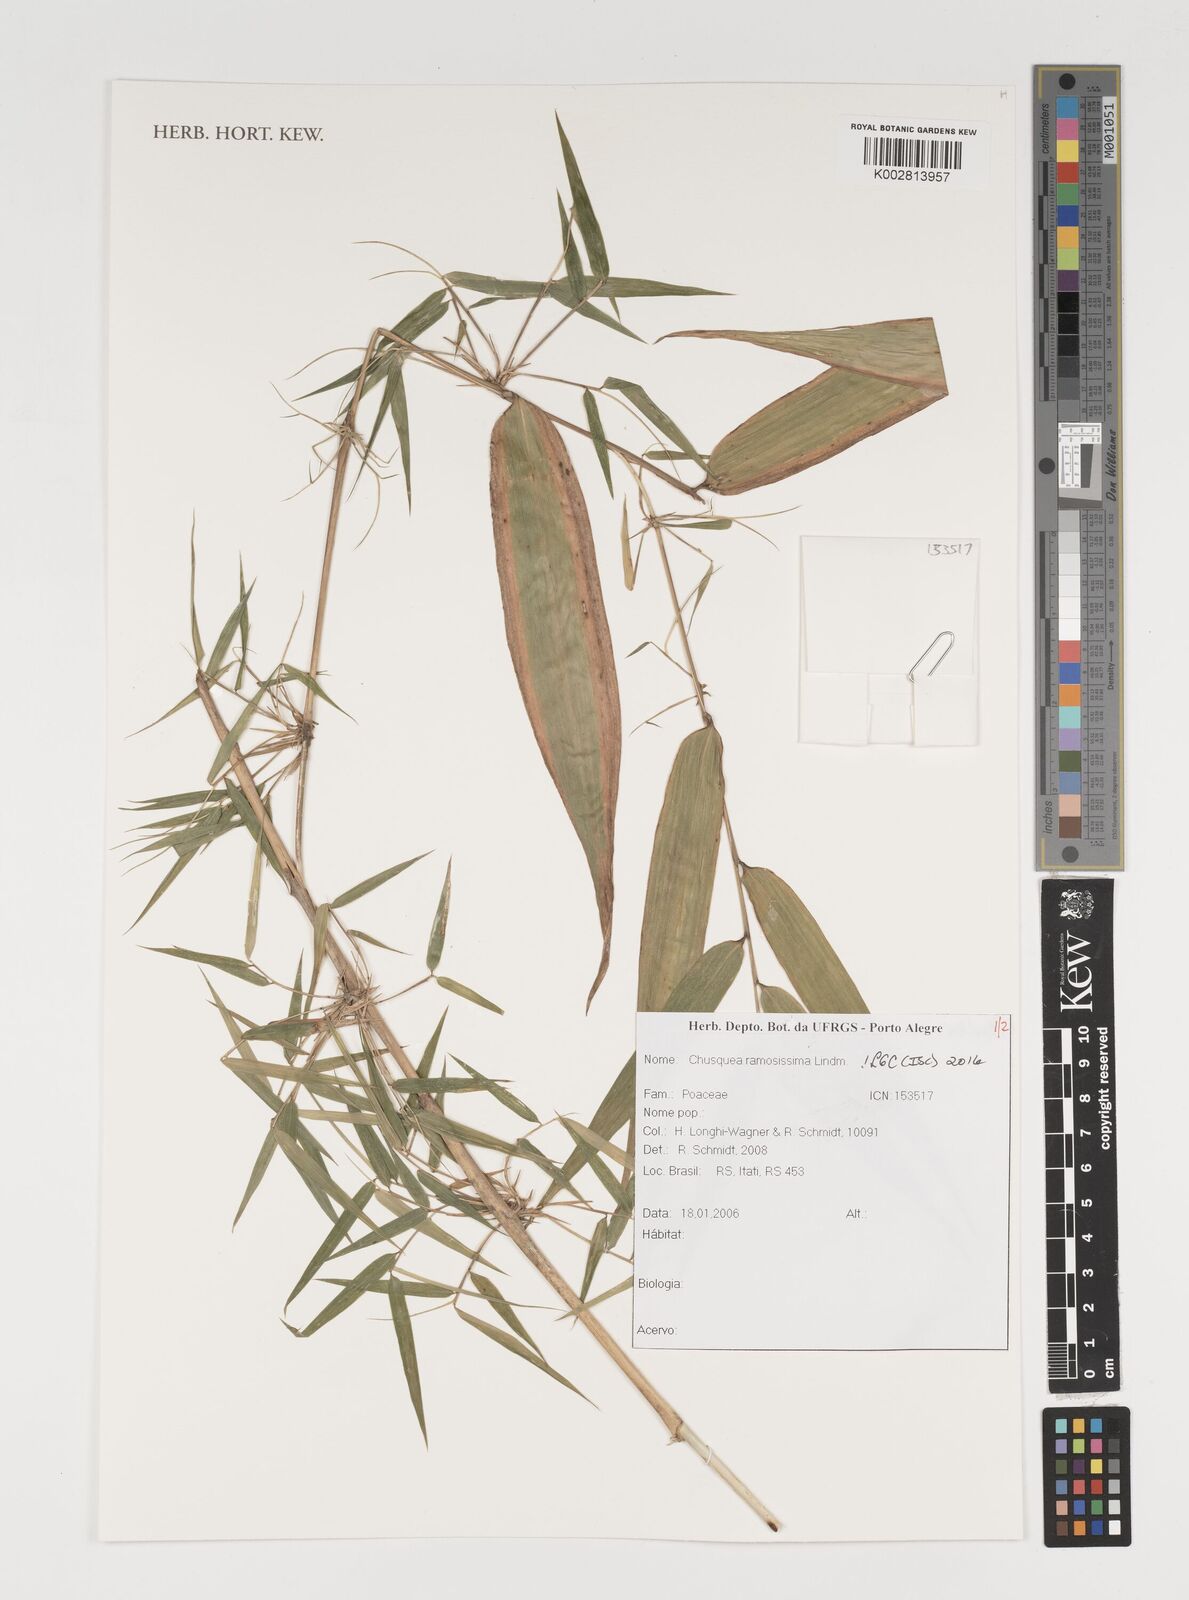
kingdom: Plantae
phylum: Tracheophyta
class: Liliopsida
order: Poales
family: Poaceae
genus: Chusquea
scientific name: Chusquea ramosissima
